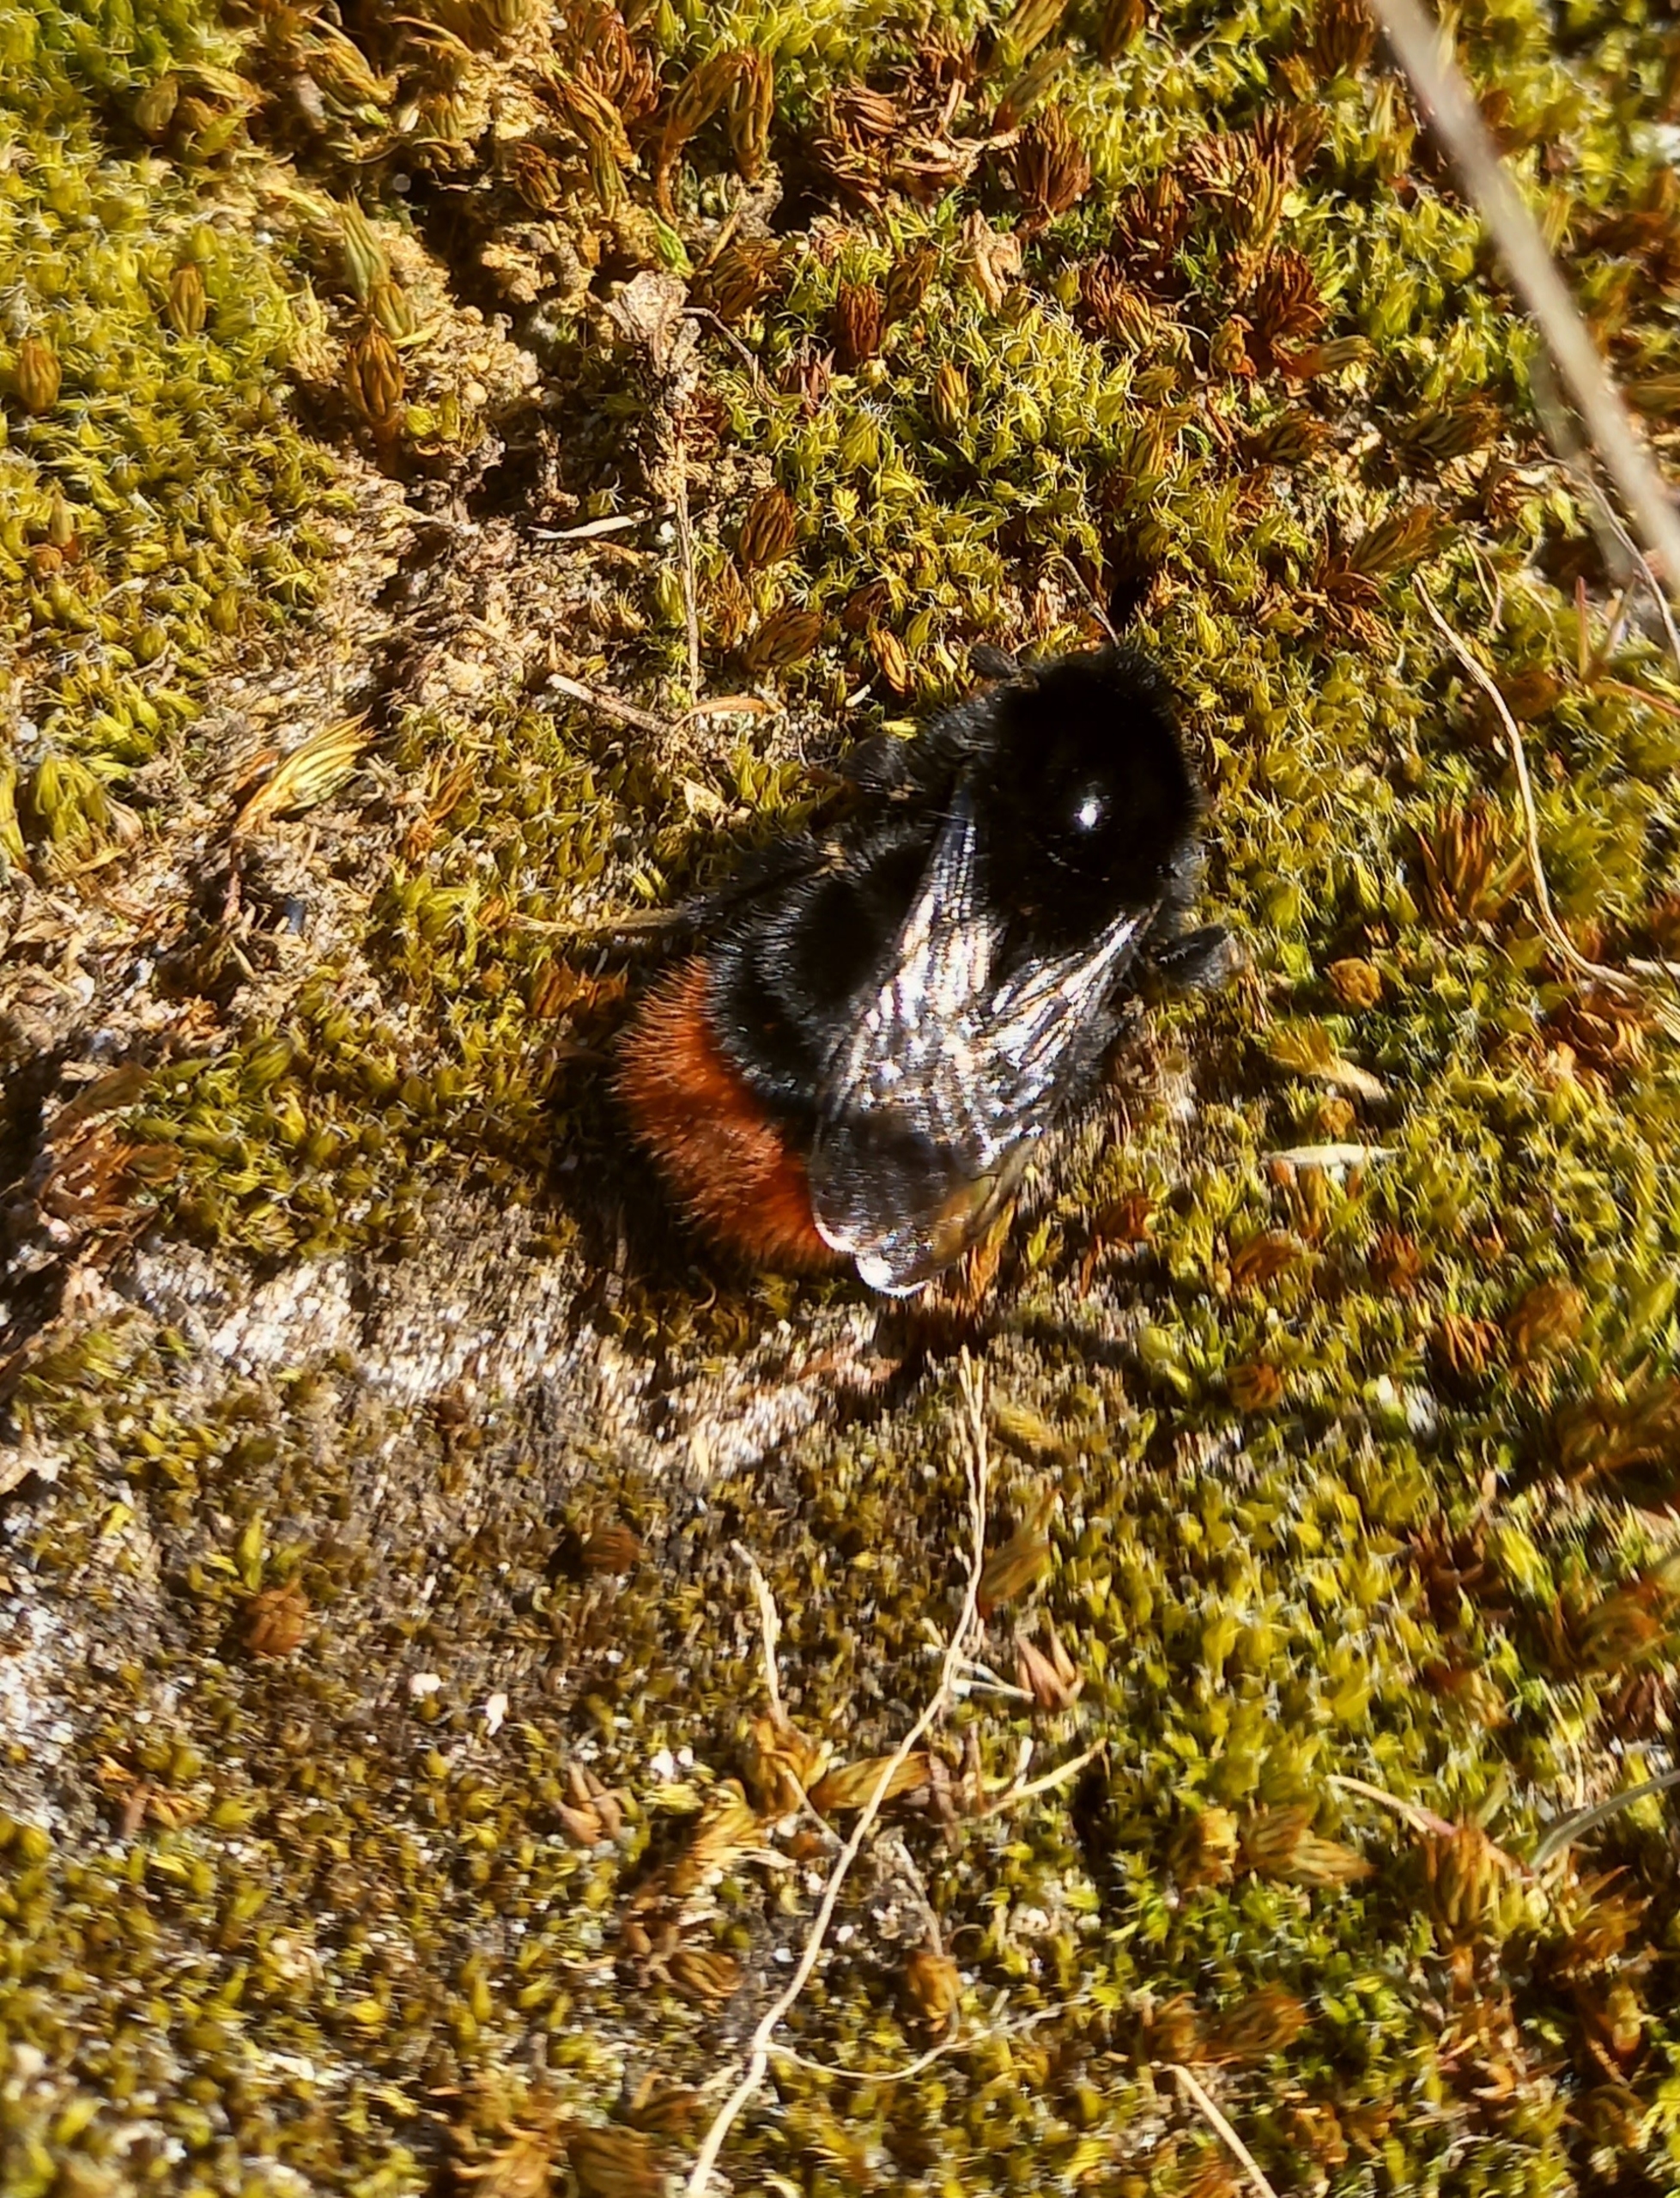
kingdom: Animalia
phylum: Arthropoda
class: Insecta
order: Hymenoptera
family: Apidae
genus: Bombus
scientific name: Bombus lapidarius
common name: Stenhumle
